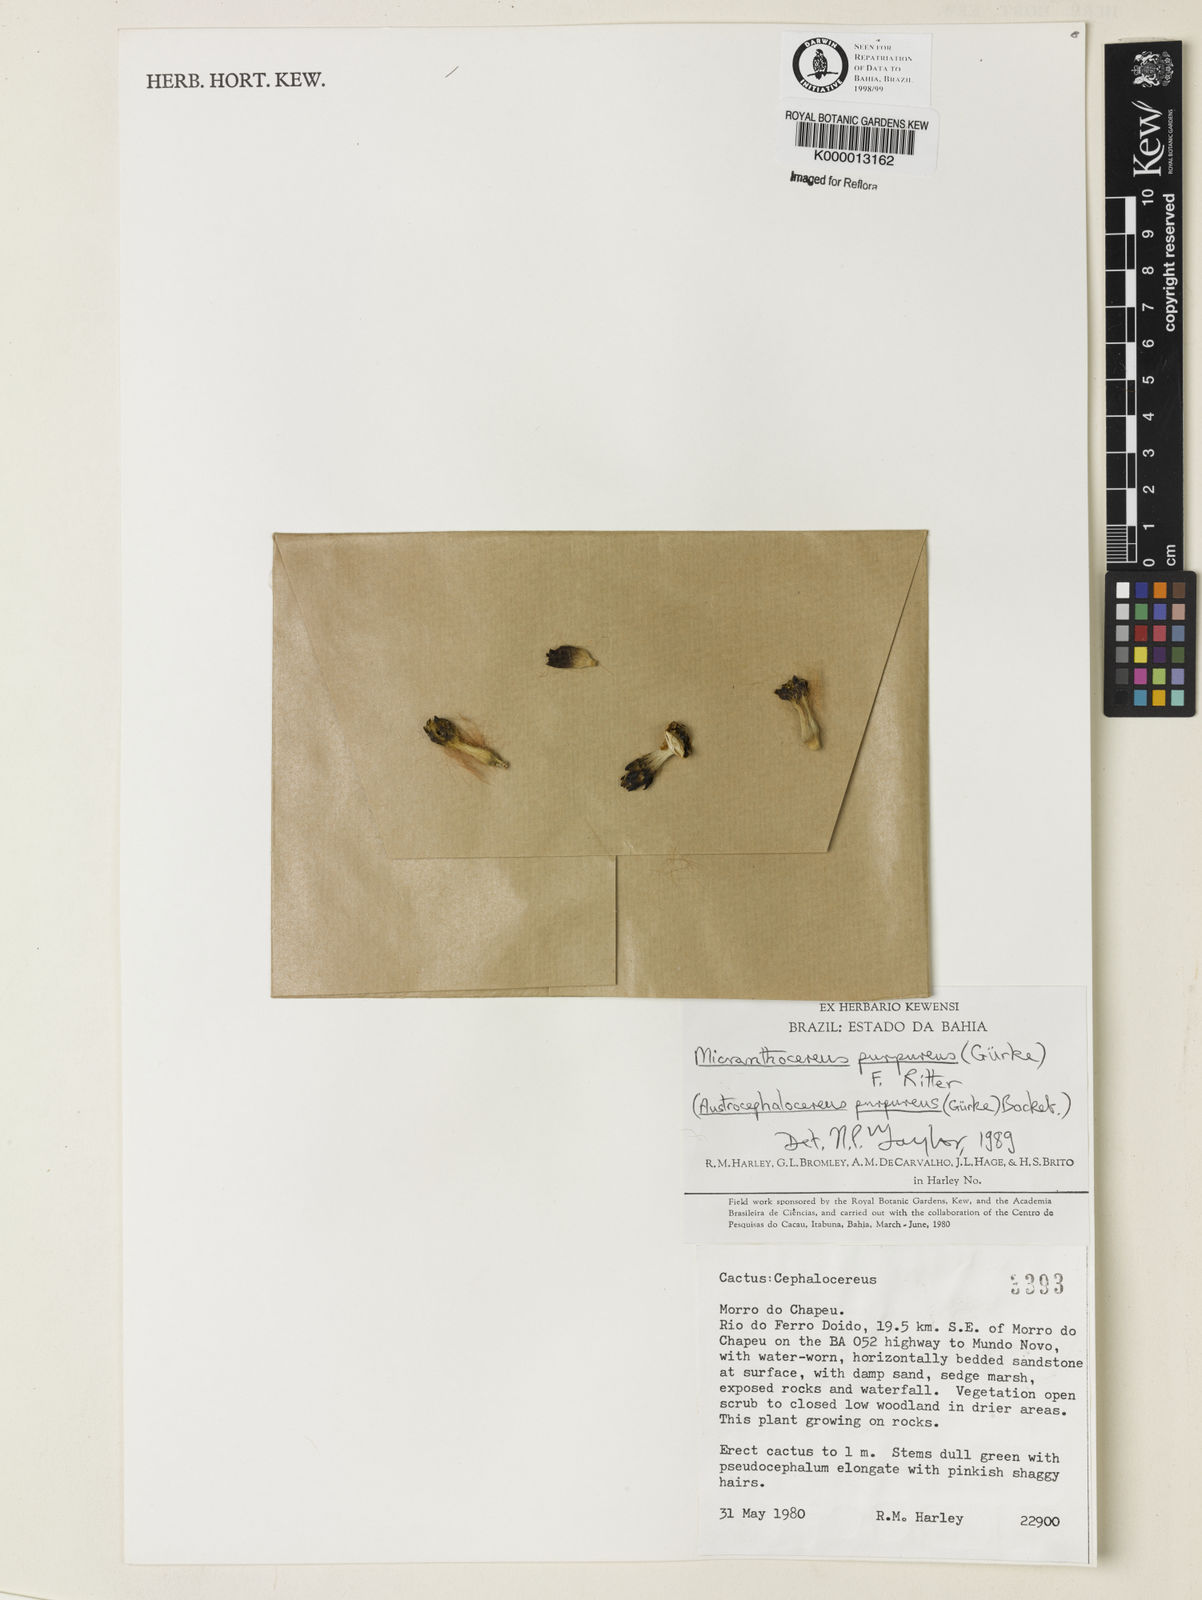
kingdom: Plantae
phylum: Tracheophyta
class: Magnoliopsida
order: Caryophyllales
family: Cactaceae
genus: Micranthocereus
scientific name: Micranthocereus purpureus
